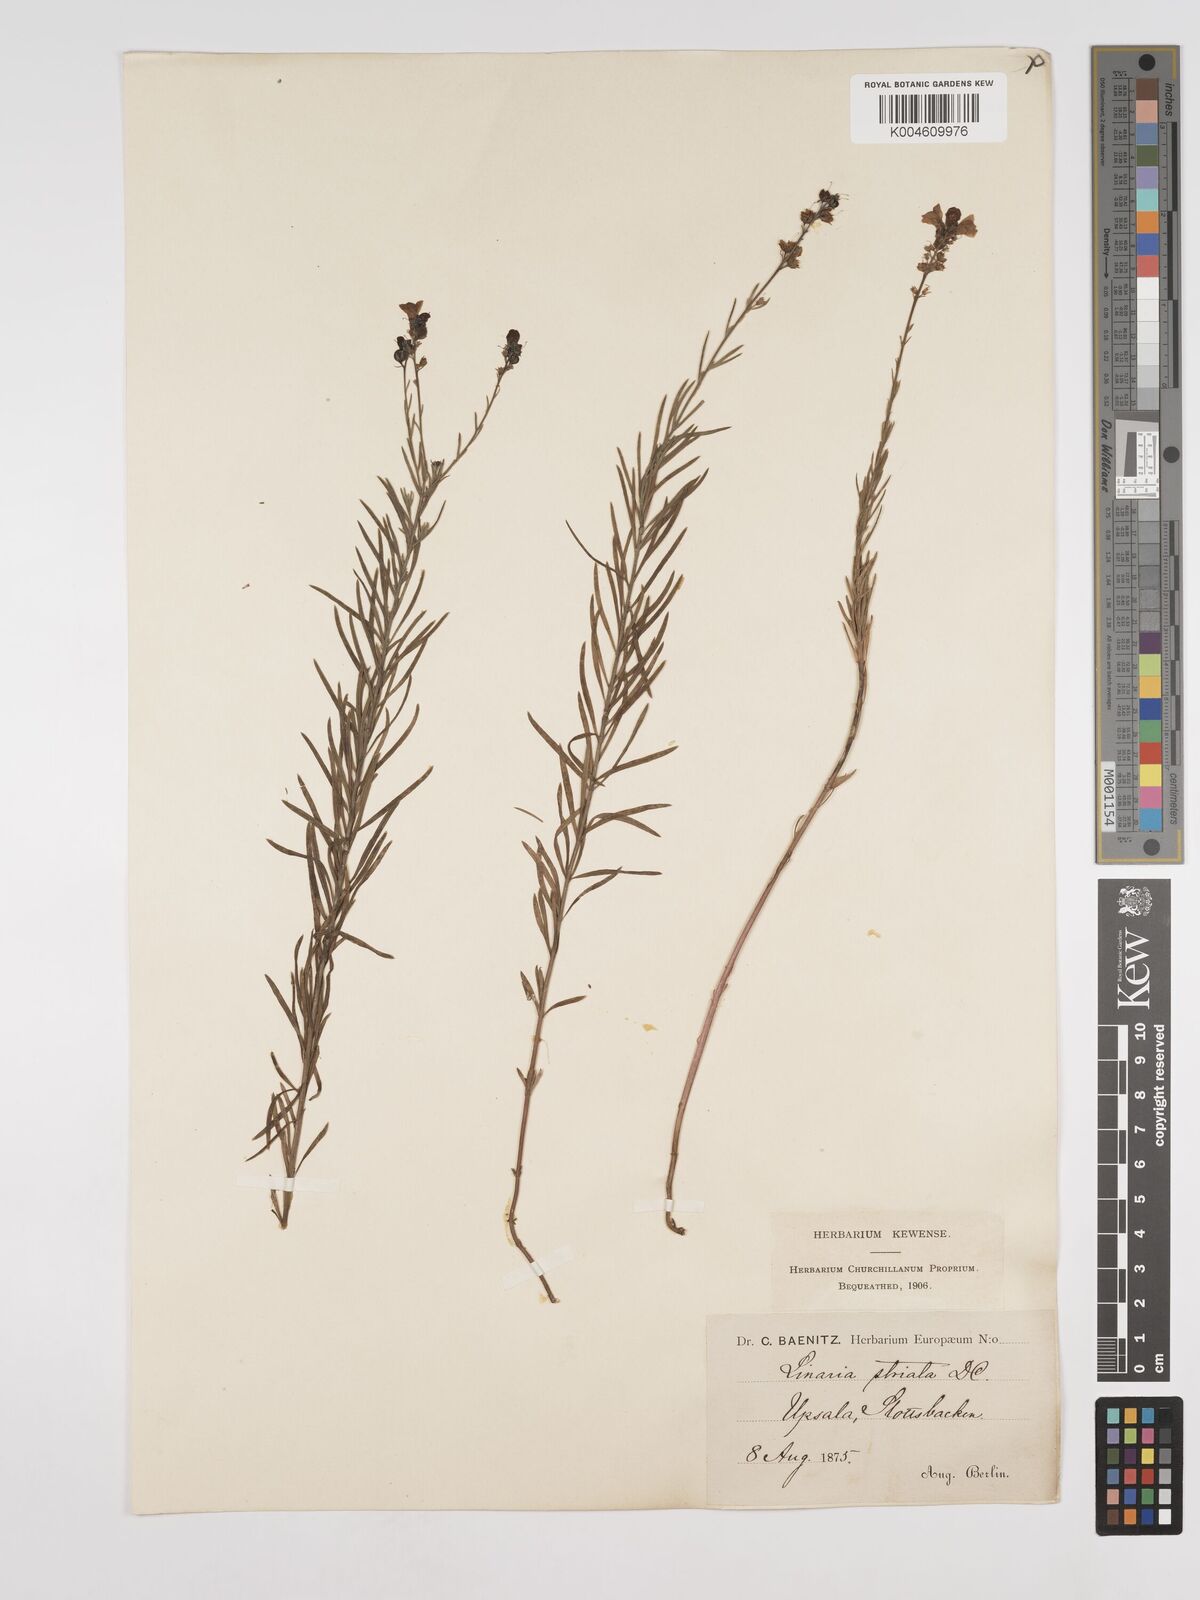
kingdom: Plantae
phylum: Tracheophyta
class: Magnoliopsida
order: Lamiales
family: Plantaginaceae
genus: Linaria
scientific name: Linaria
